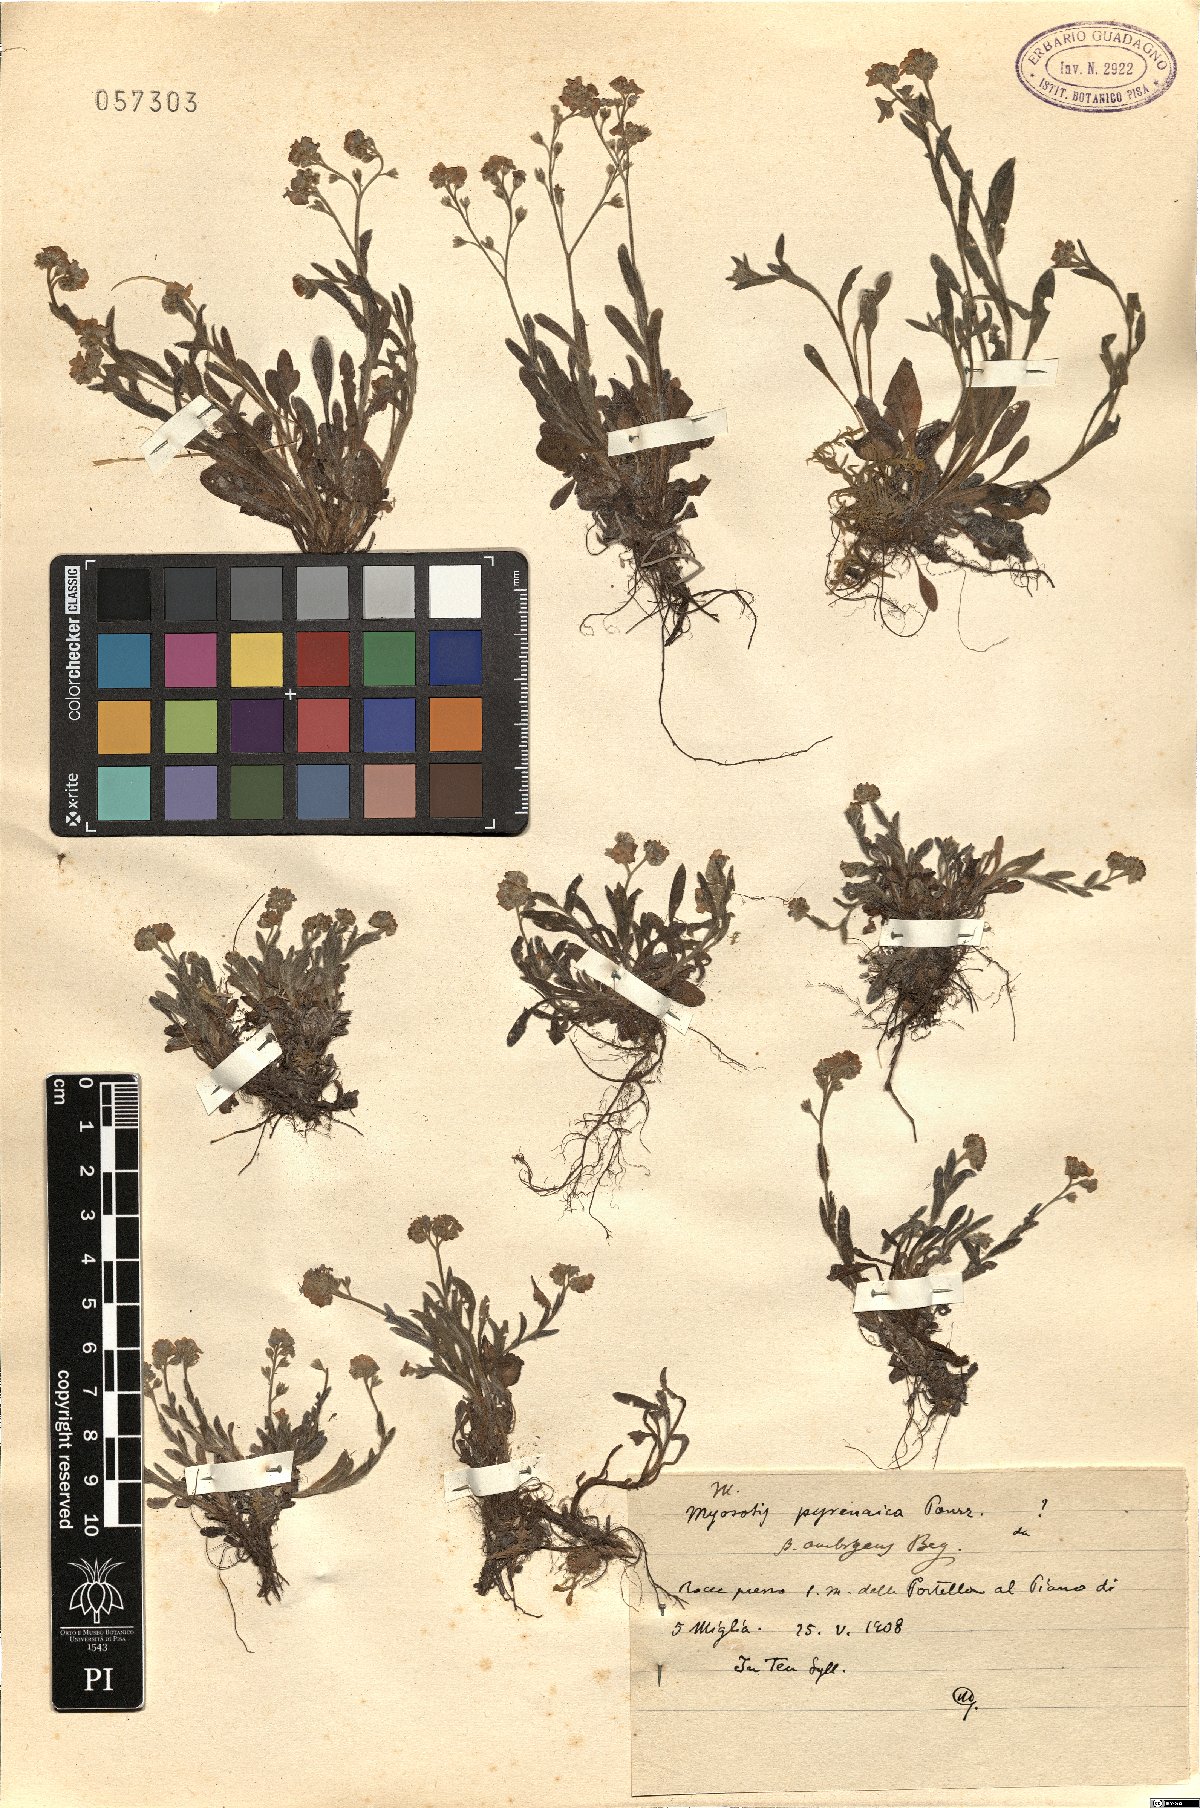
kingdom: Plantae
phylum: Tracheophyta
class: Magnoliopsida
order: Boraginales
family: Boraginaceae
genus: Myosotis
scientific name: Myosotis alpestris
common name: Alpine forget-me-not
